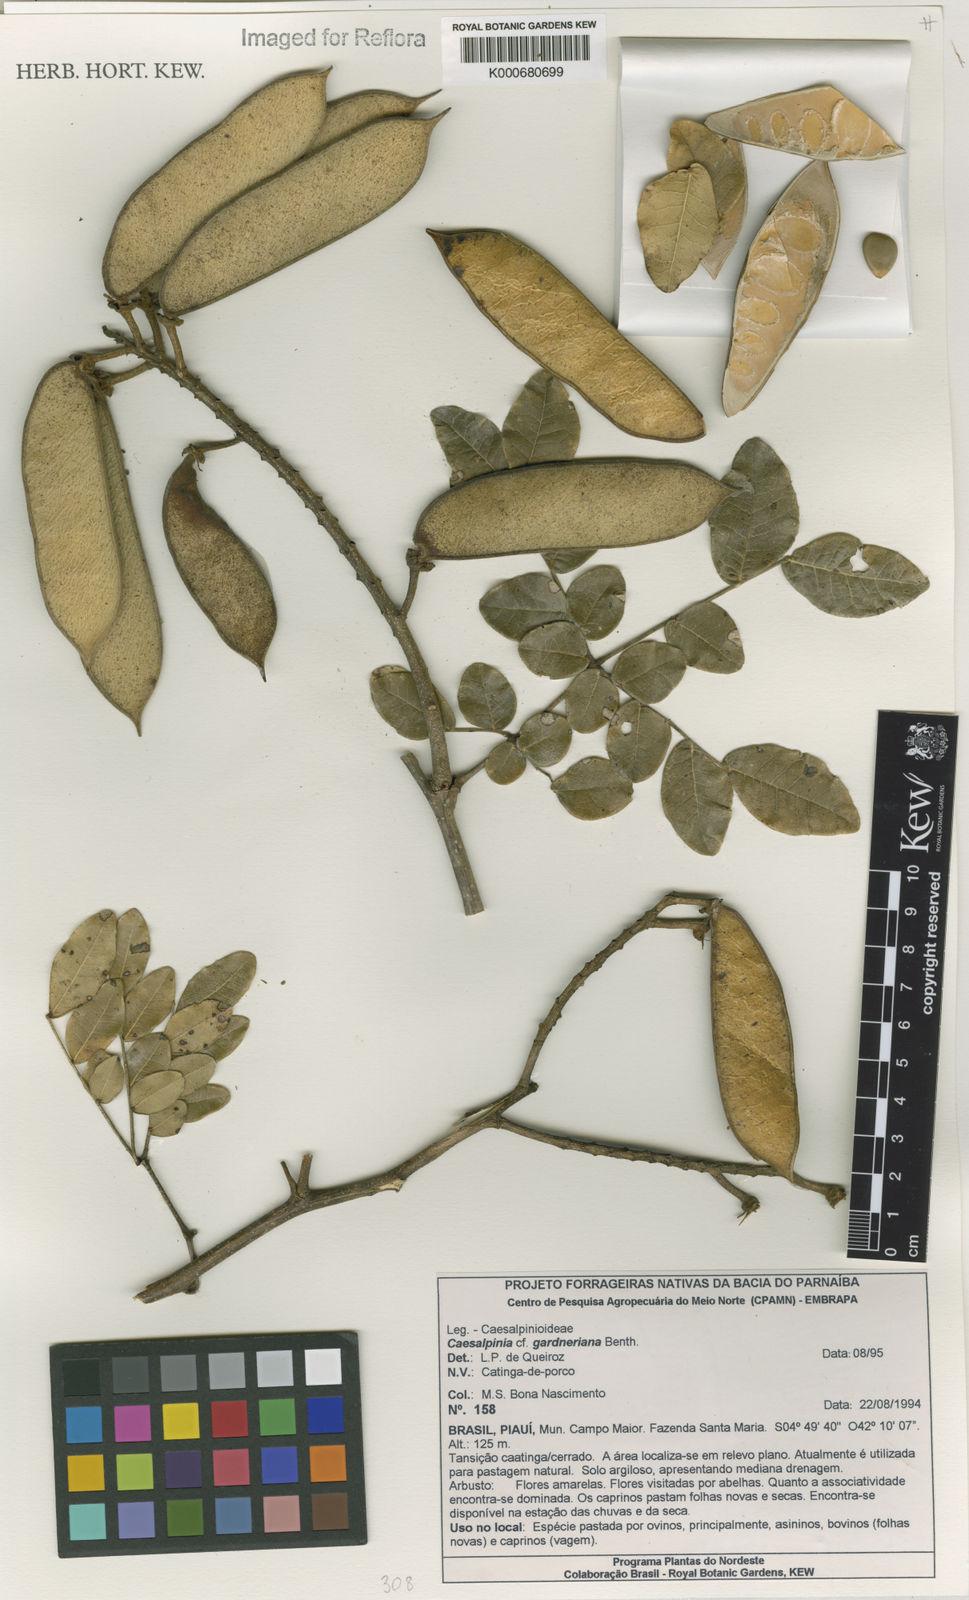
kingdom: Plantae
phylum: Tracheophyta
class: Magnoliopsida
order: Fabales
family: Fabaceae
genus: Cenostigma
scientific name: Cenostigma nordestinum
